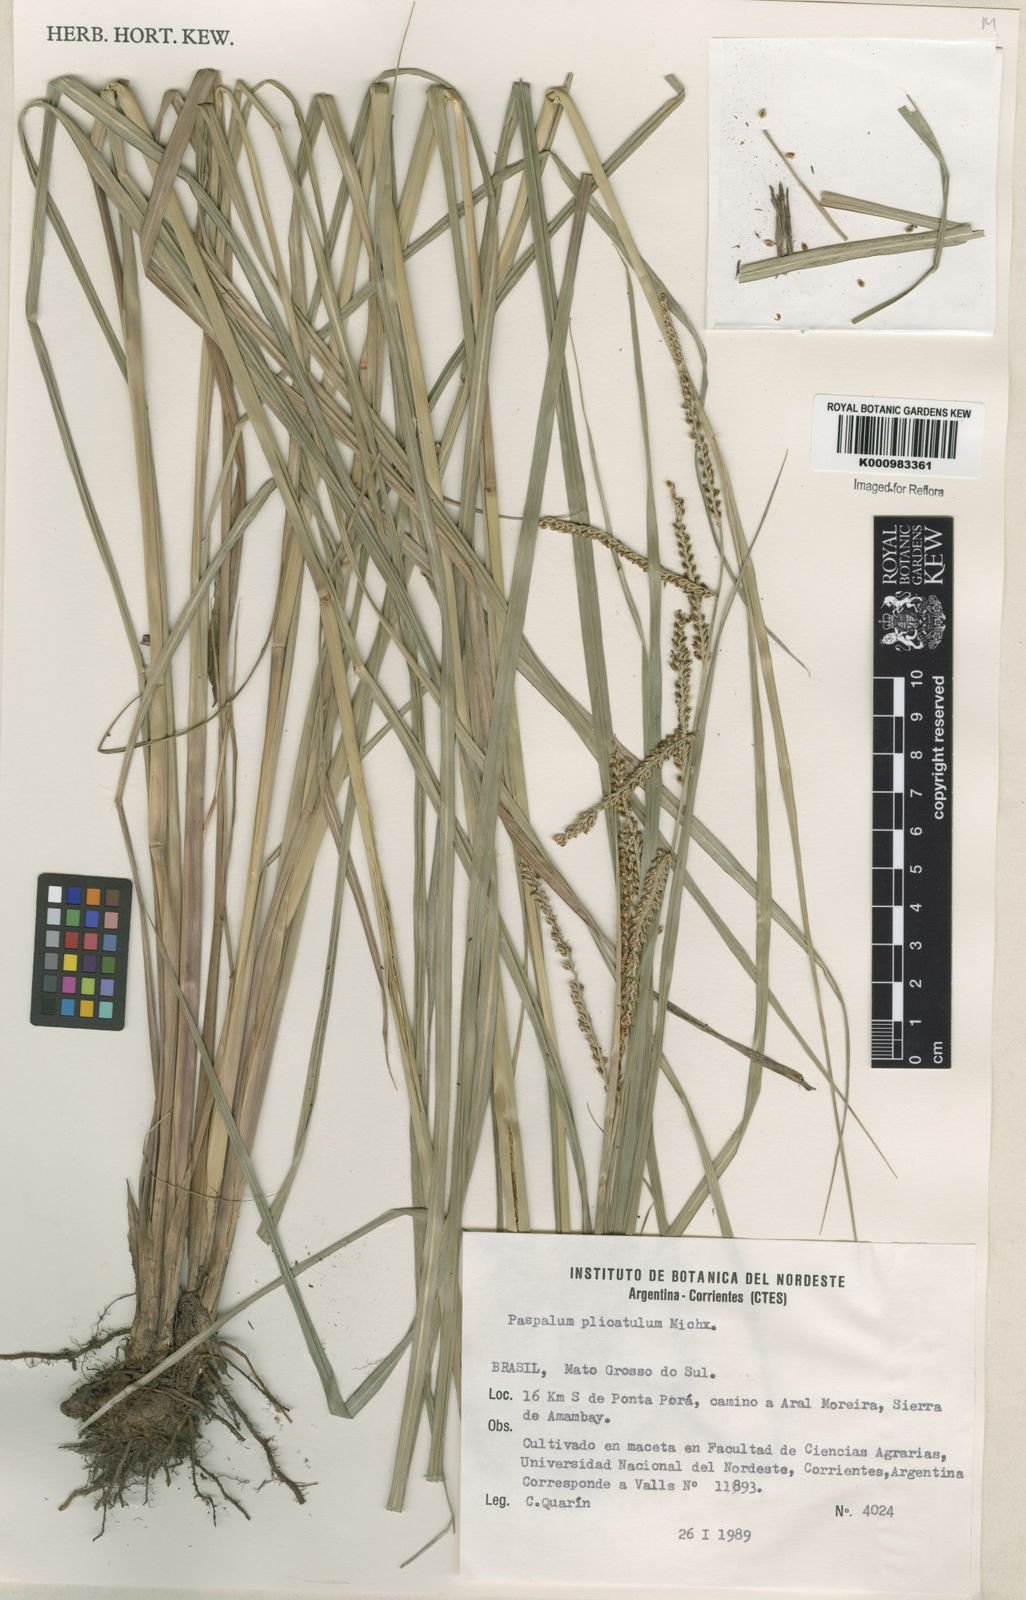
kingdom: Plantae
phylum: Tracheophyta
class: Liliopsida
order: Poales
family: Poaceae
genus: Paspalum
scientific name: Paspalum plicatulum
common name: Top paspalum
